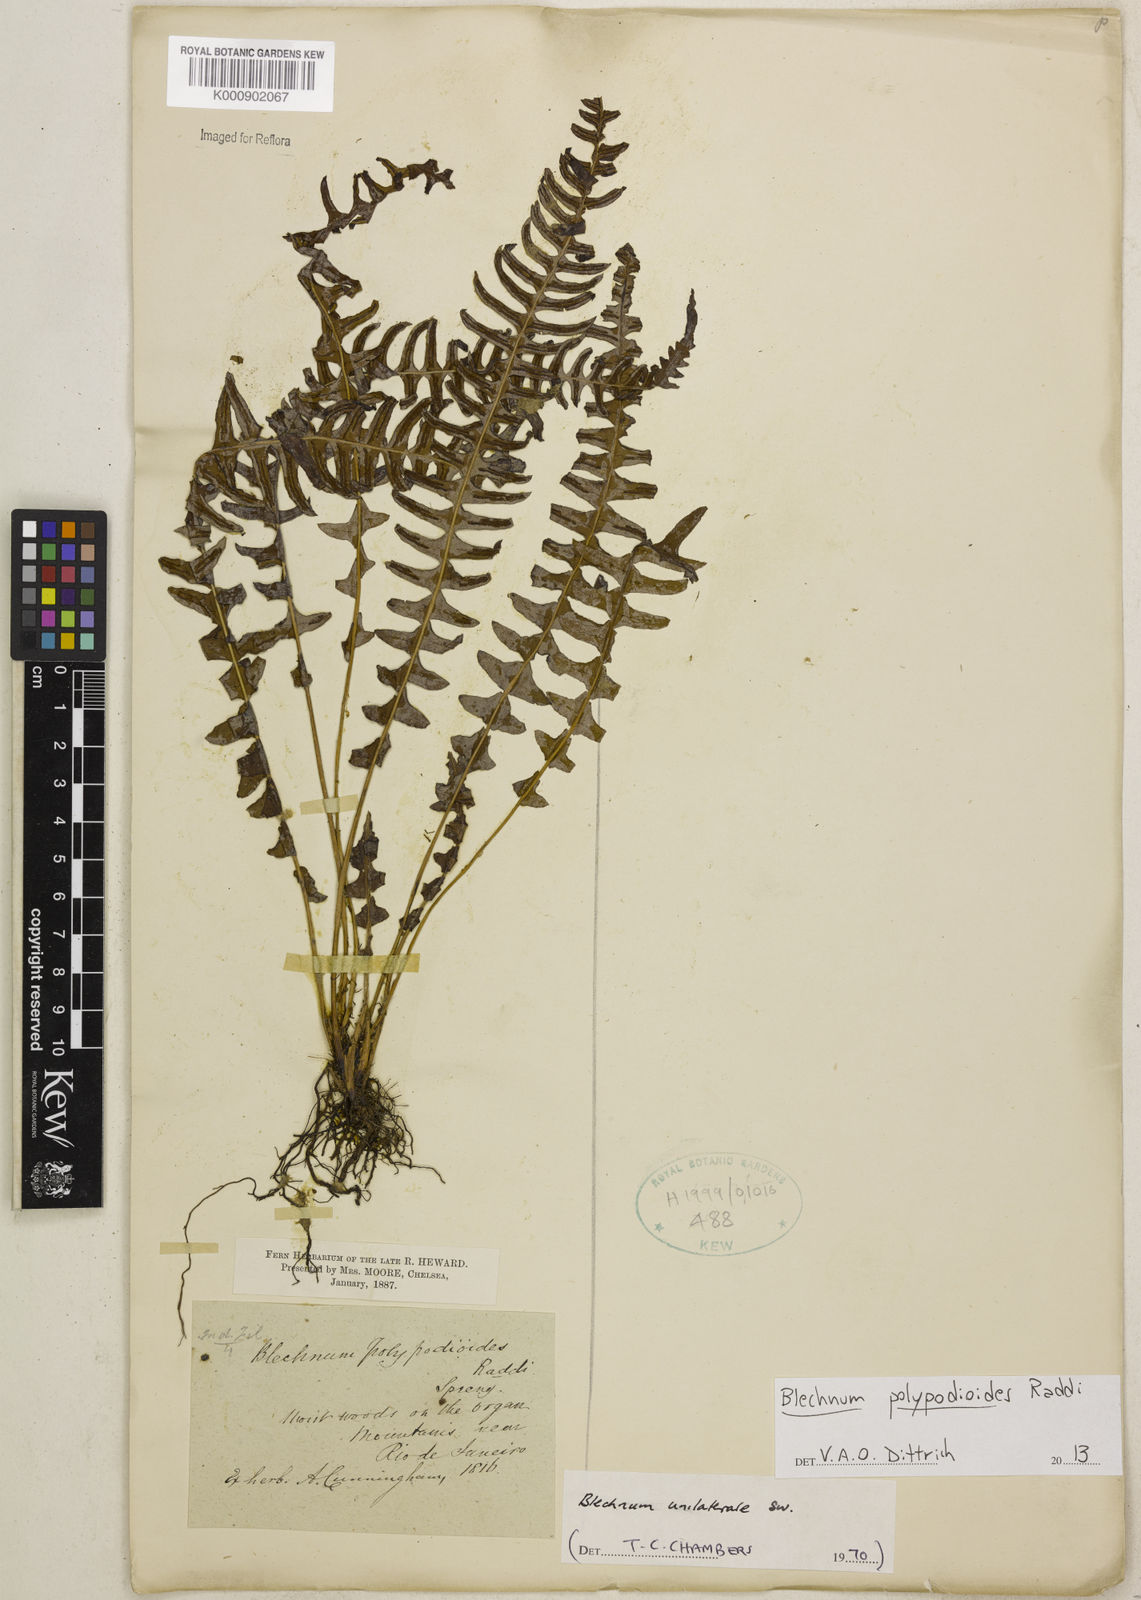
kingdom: Plantae
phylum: Tracheophyta
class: Polypodiopsida
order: Polypodiales
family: Blechnaceae
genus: Blechnum
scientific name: Blechnum polypodioides
